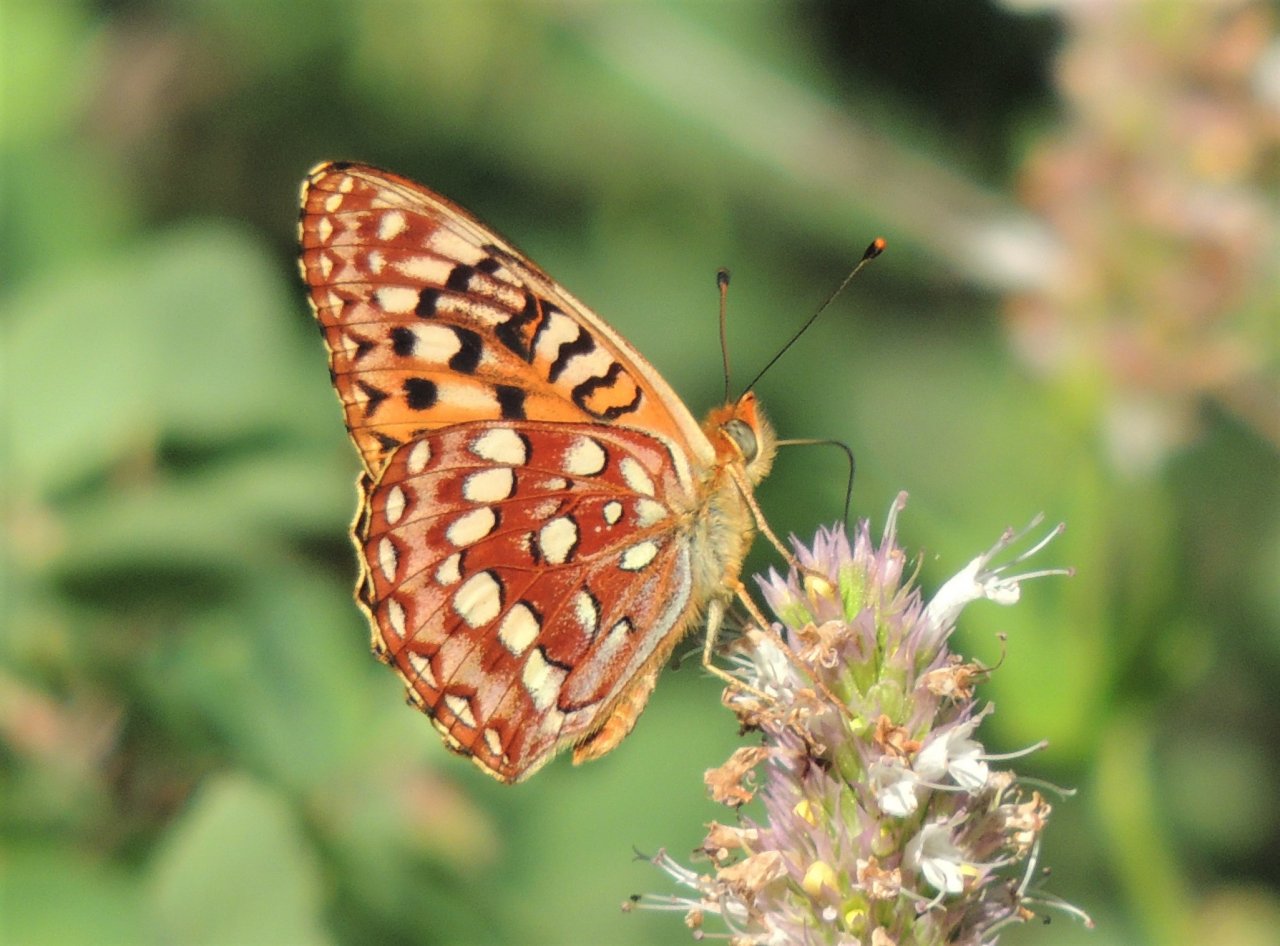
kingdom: Animalia
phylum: Arthropoda
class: Insecta
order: Lepidoptera
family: Nymphalidae
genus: Speyeria
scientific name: Speyeria hydaspe
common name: Hydaspe Fritillary
